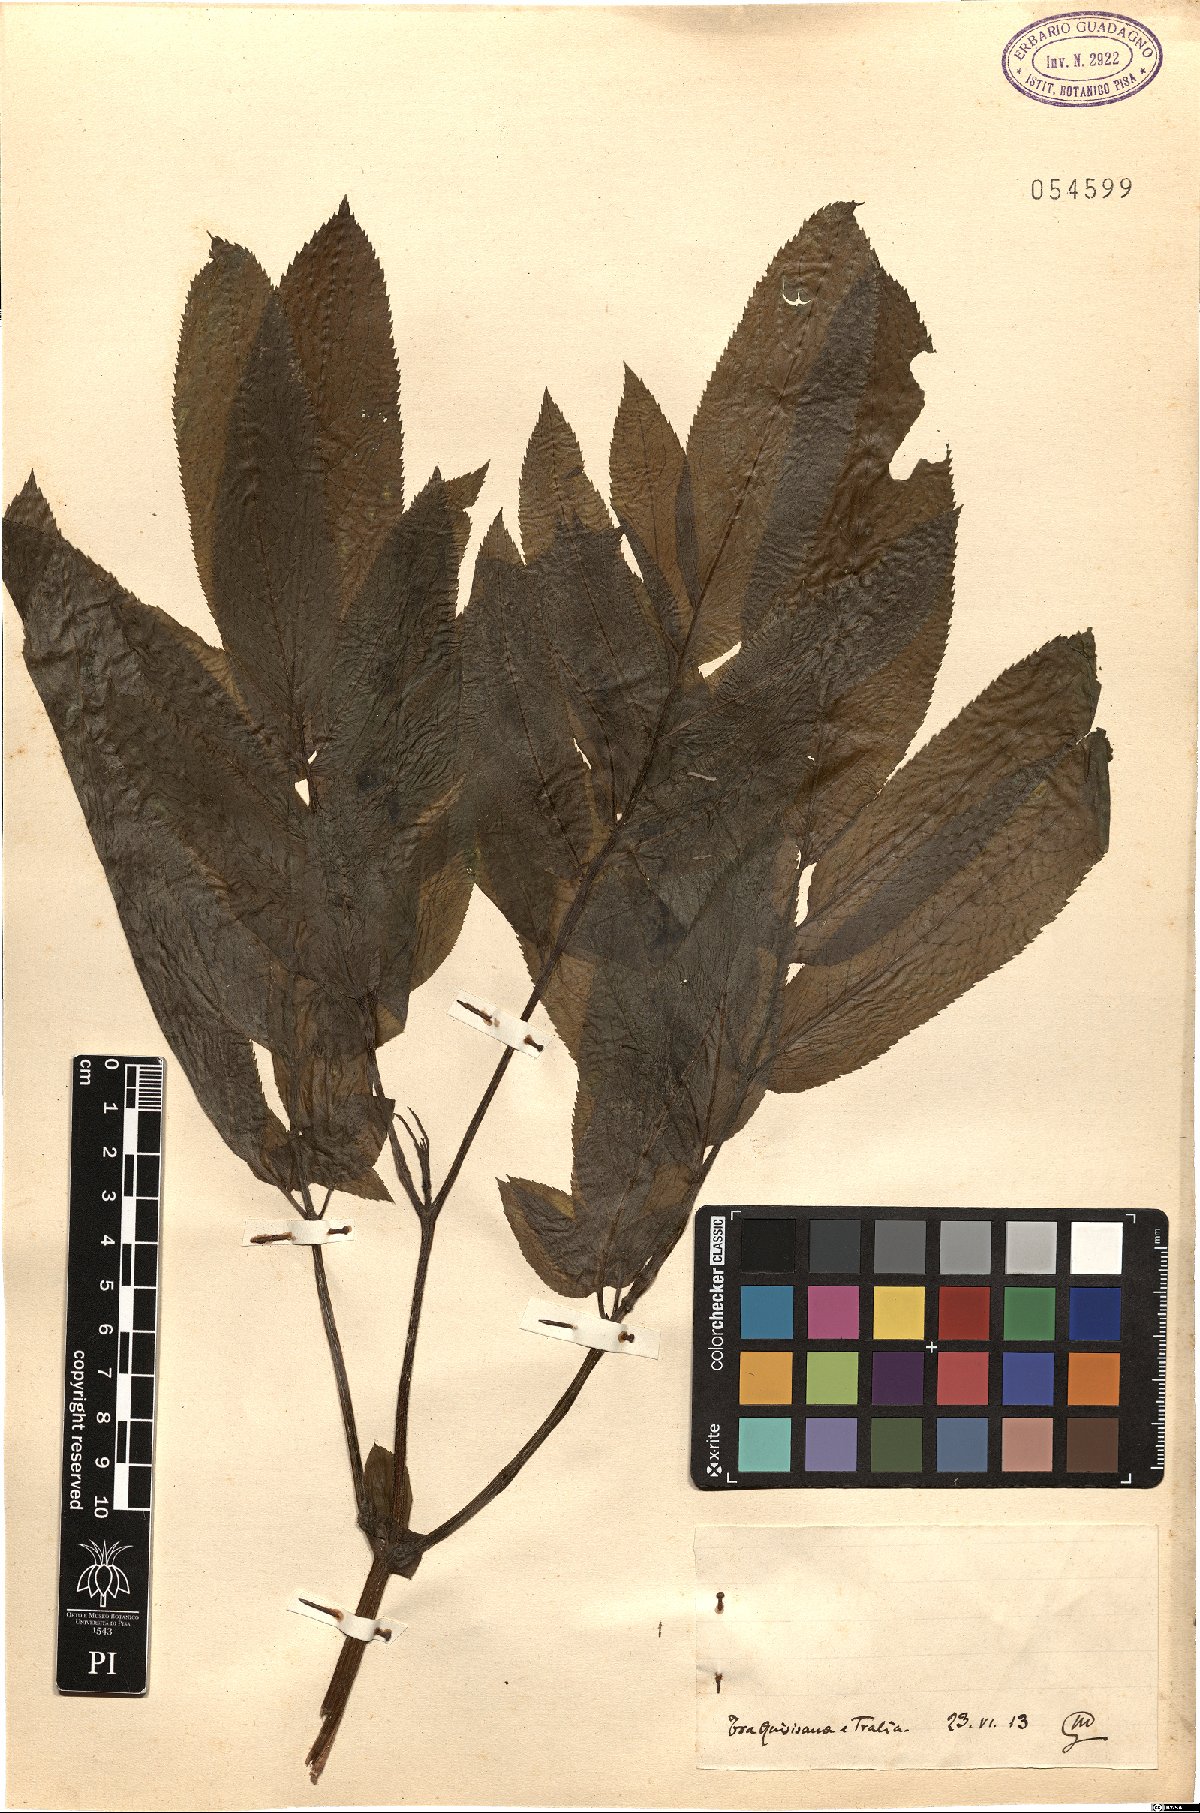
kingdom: Plantae
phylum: Tracheophyta
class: Magnoliopsida
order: Dipsacales
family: Viburnaceae
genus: Sambucus
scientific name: Sambucus
